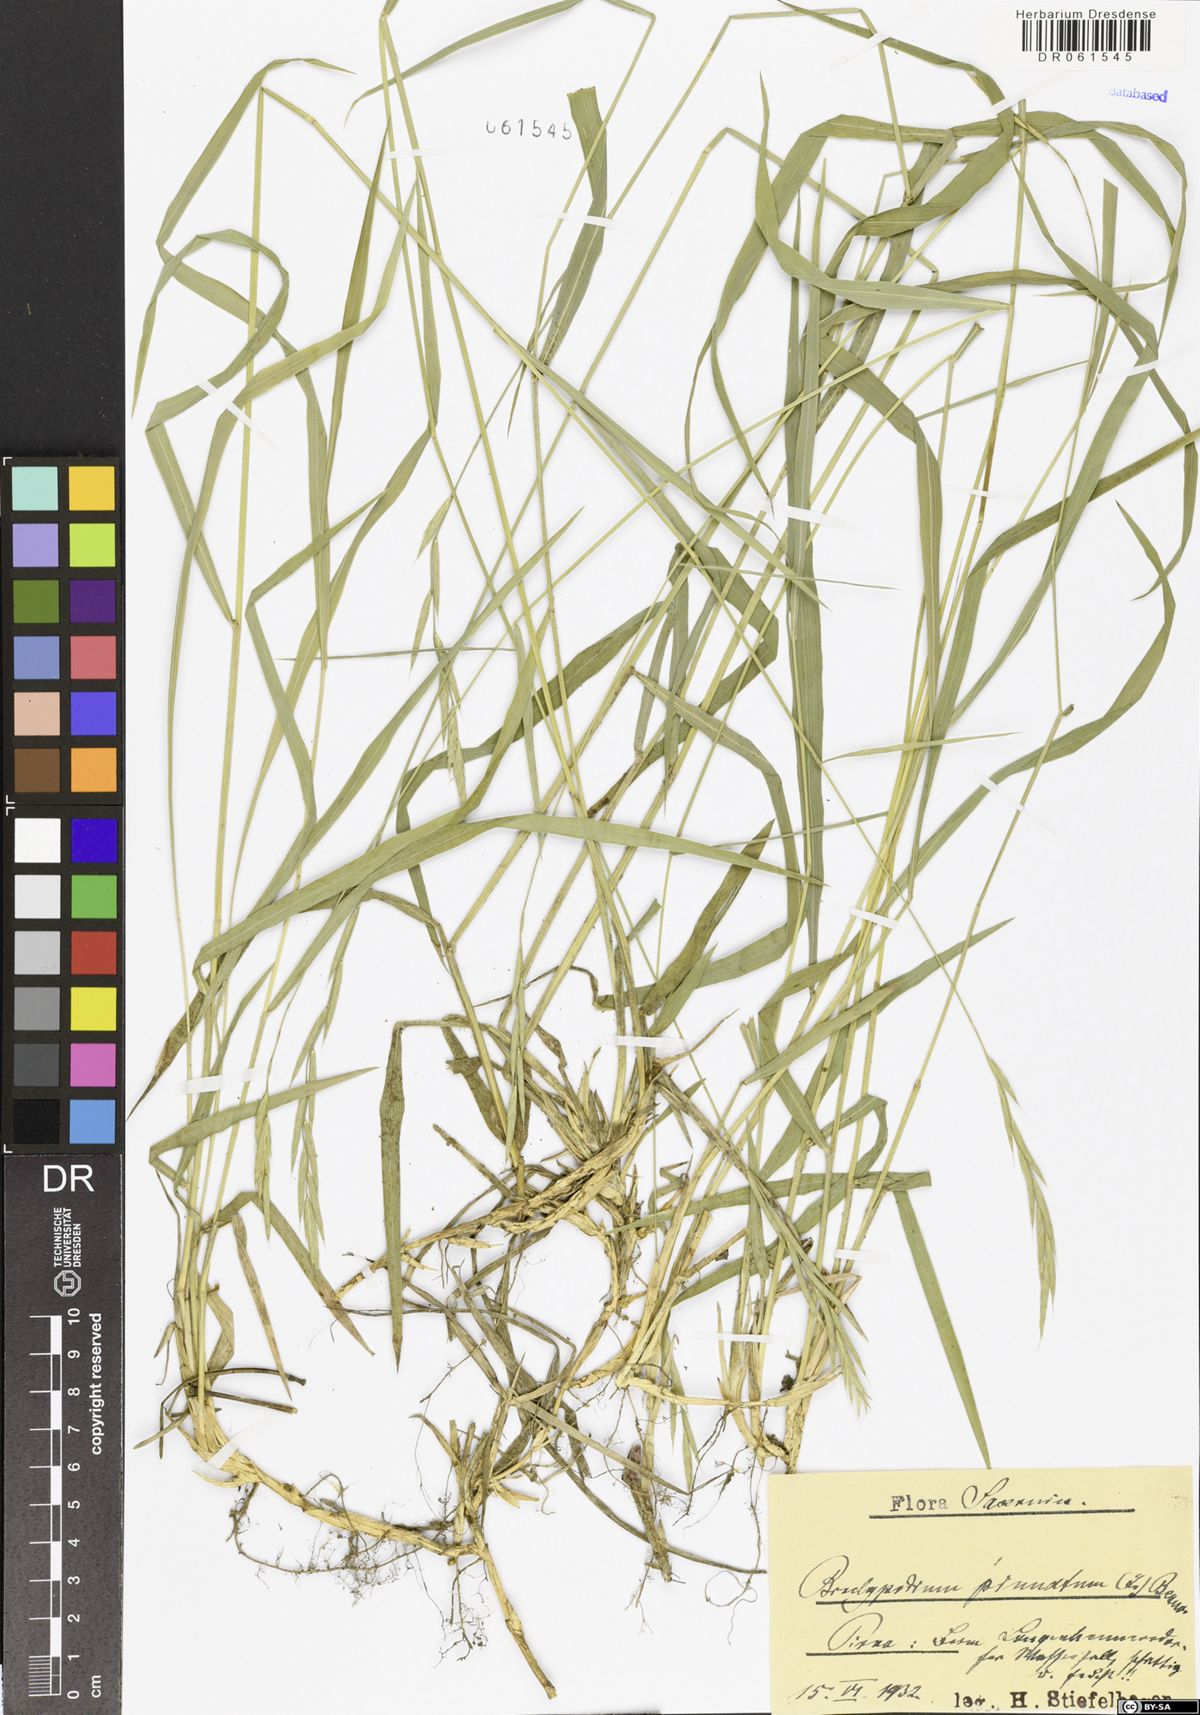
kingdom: Plantae
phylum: Tracheophyta
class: Liliopsida
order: Poales
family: Poaceae
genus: Brachypodium
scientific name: Brachypodium pinnatum
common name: Tor grass
